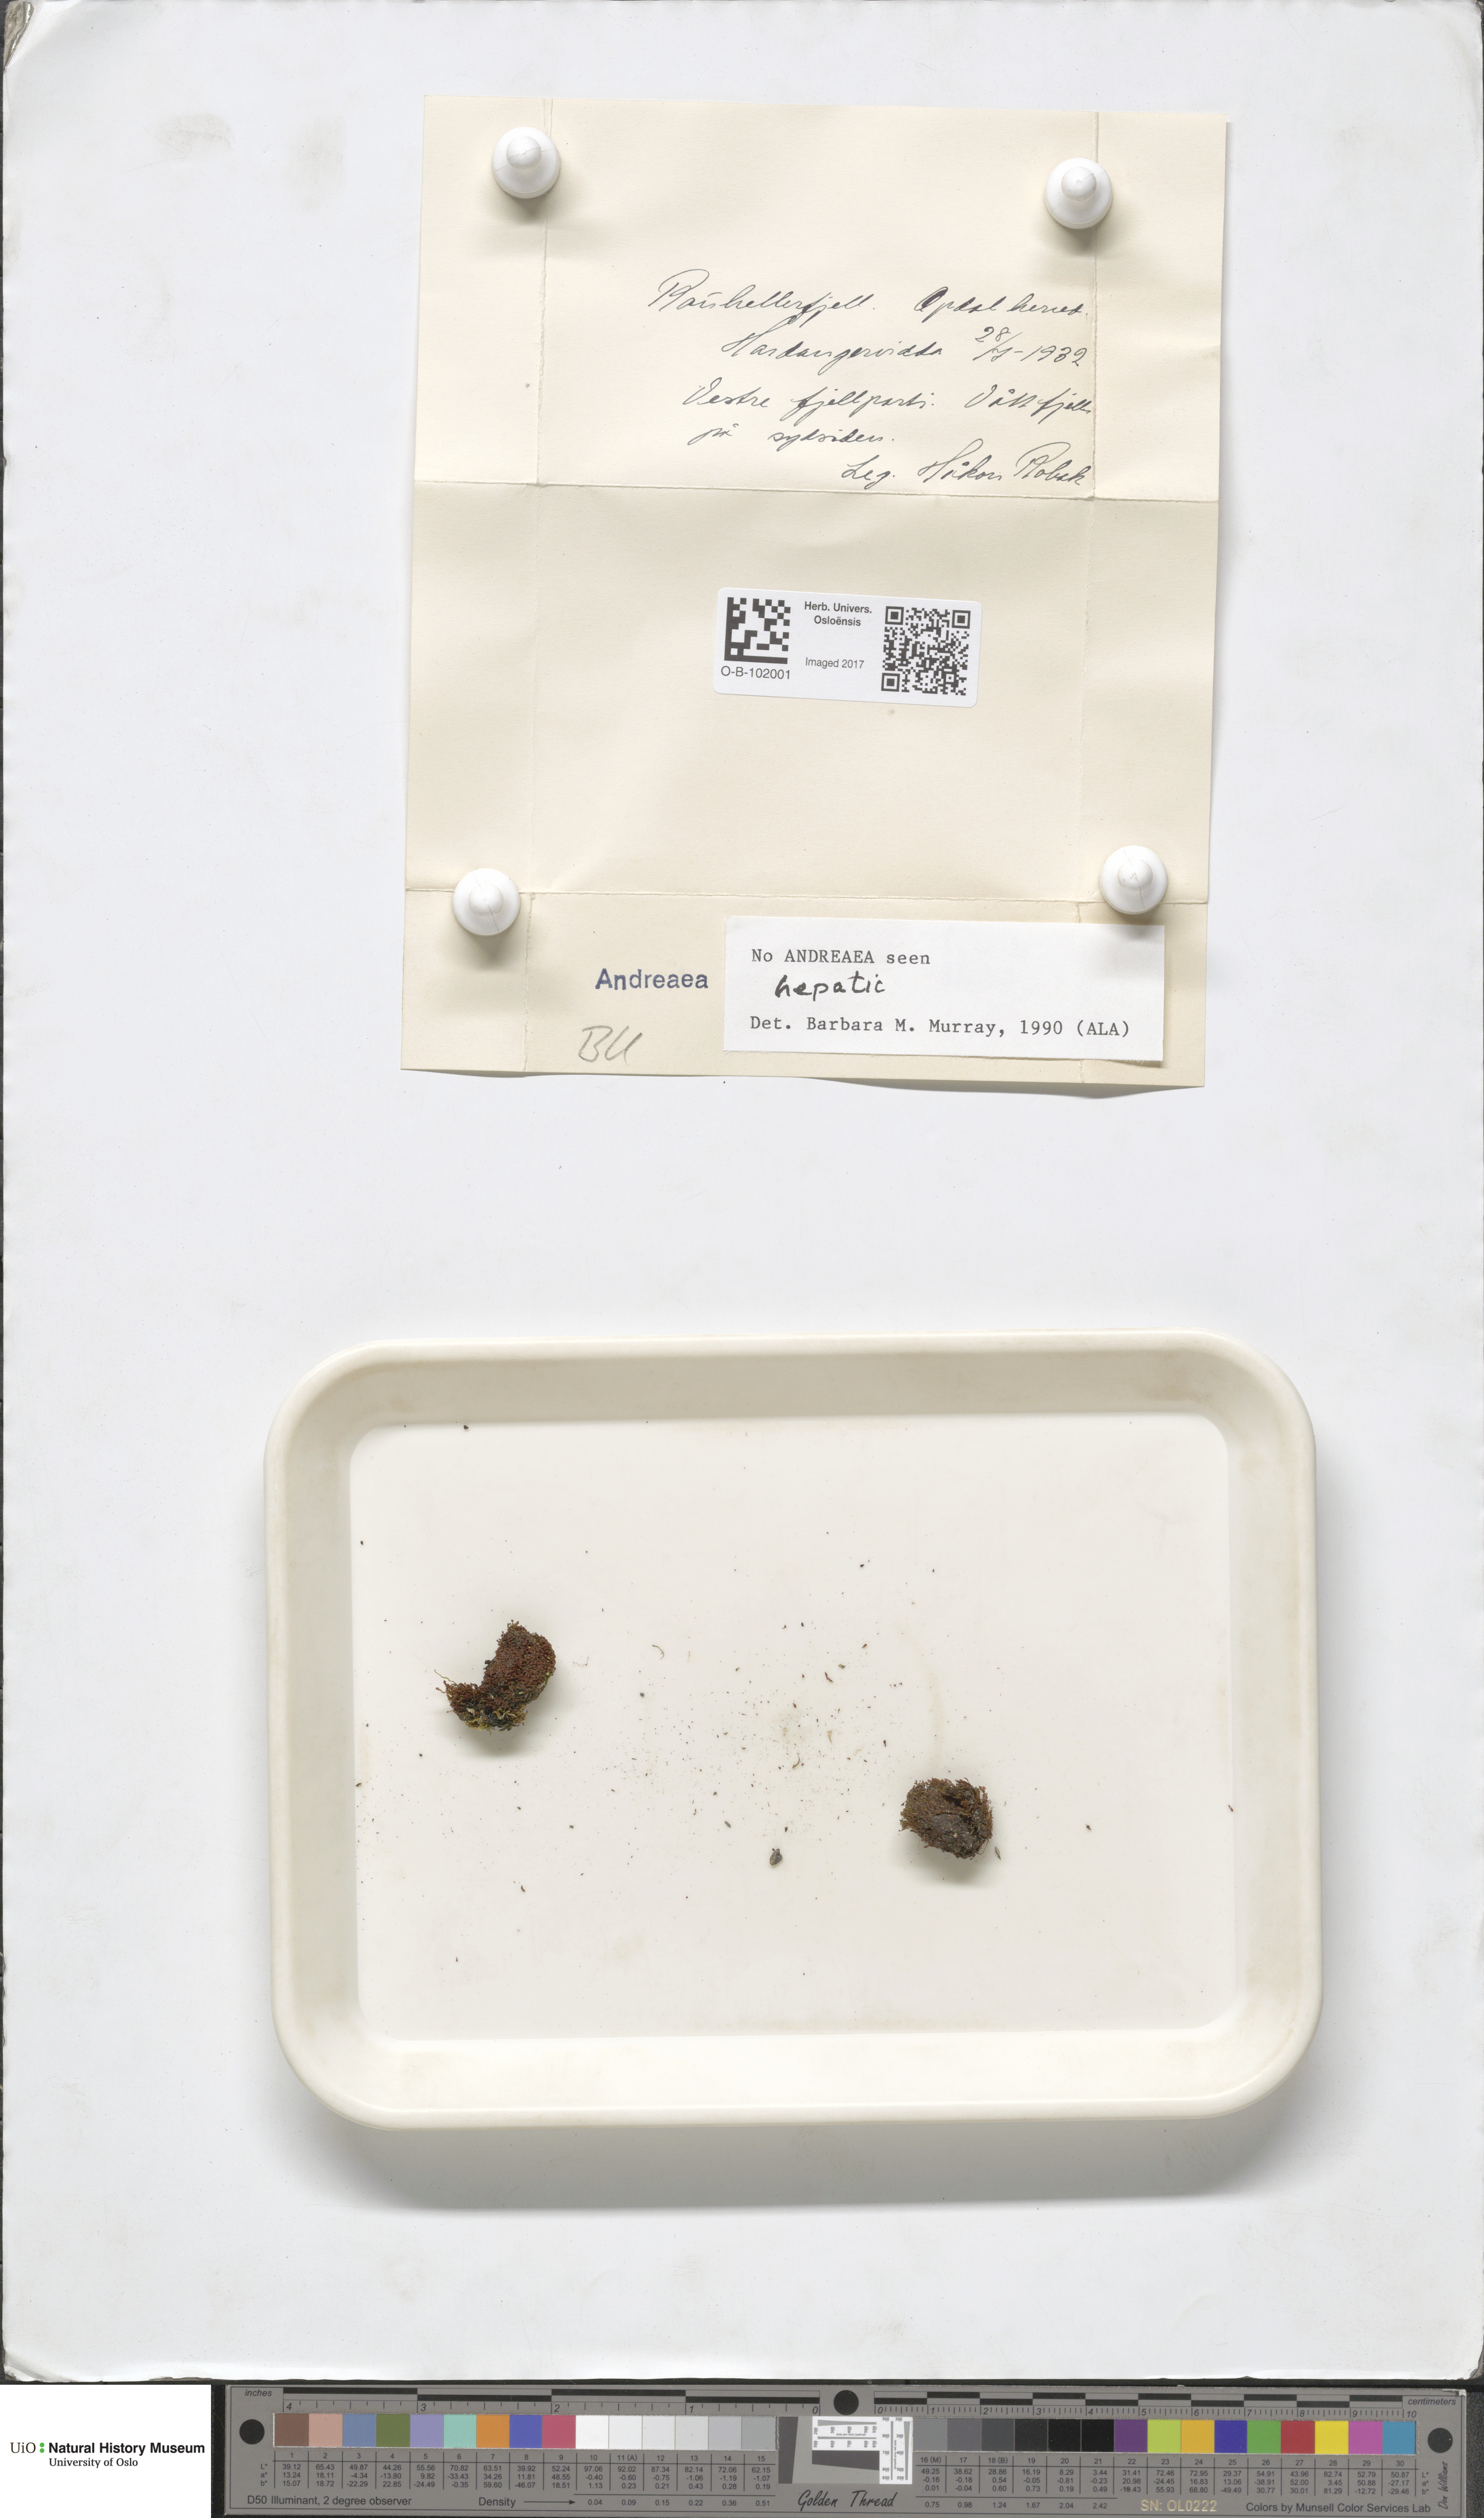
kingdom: Plantae
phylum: Bryophyta
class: Andreaeopsida
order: Andreaeales
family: Andreaeaceae
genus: Andreaea
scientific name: Andreaea
